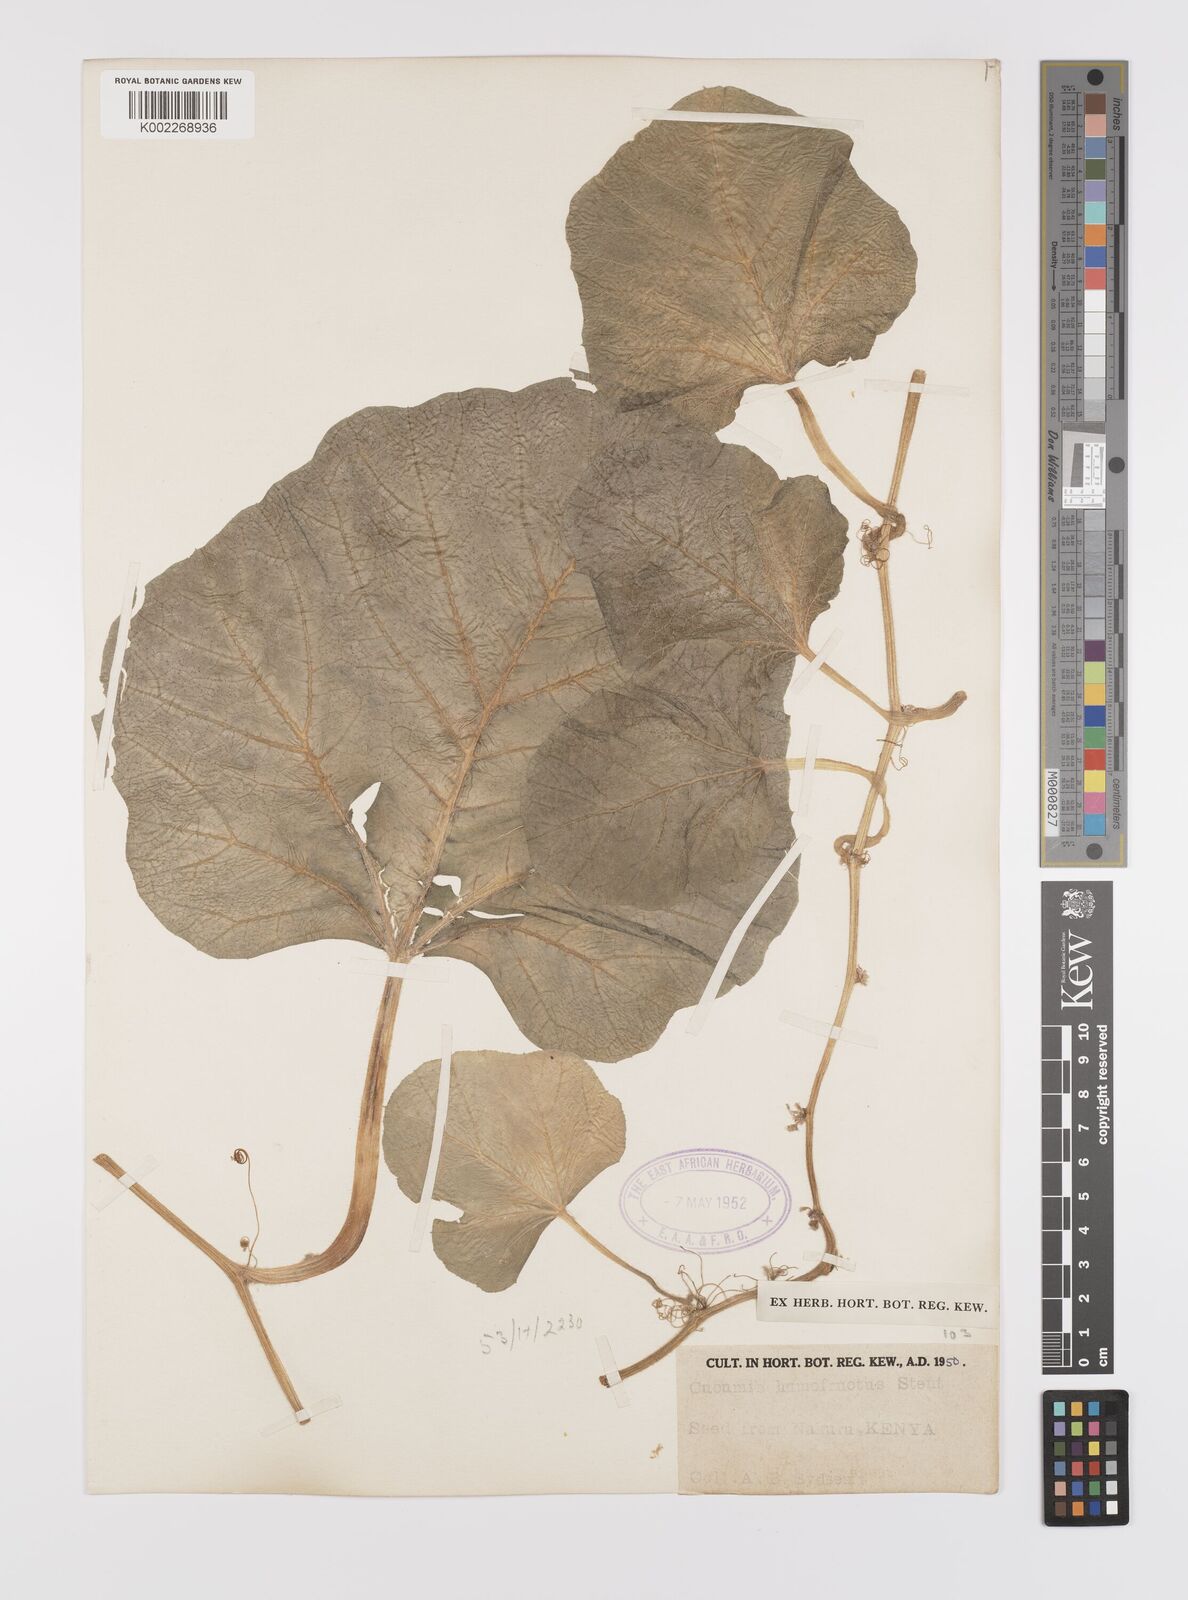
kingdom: Plantae
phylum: Tracheophyta
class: Magnoliopsida
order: Cucurbitales
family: Cucurbitaceae
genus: Cucumis
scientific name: Cucumis humofructus
